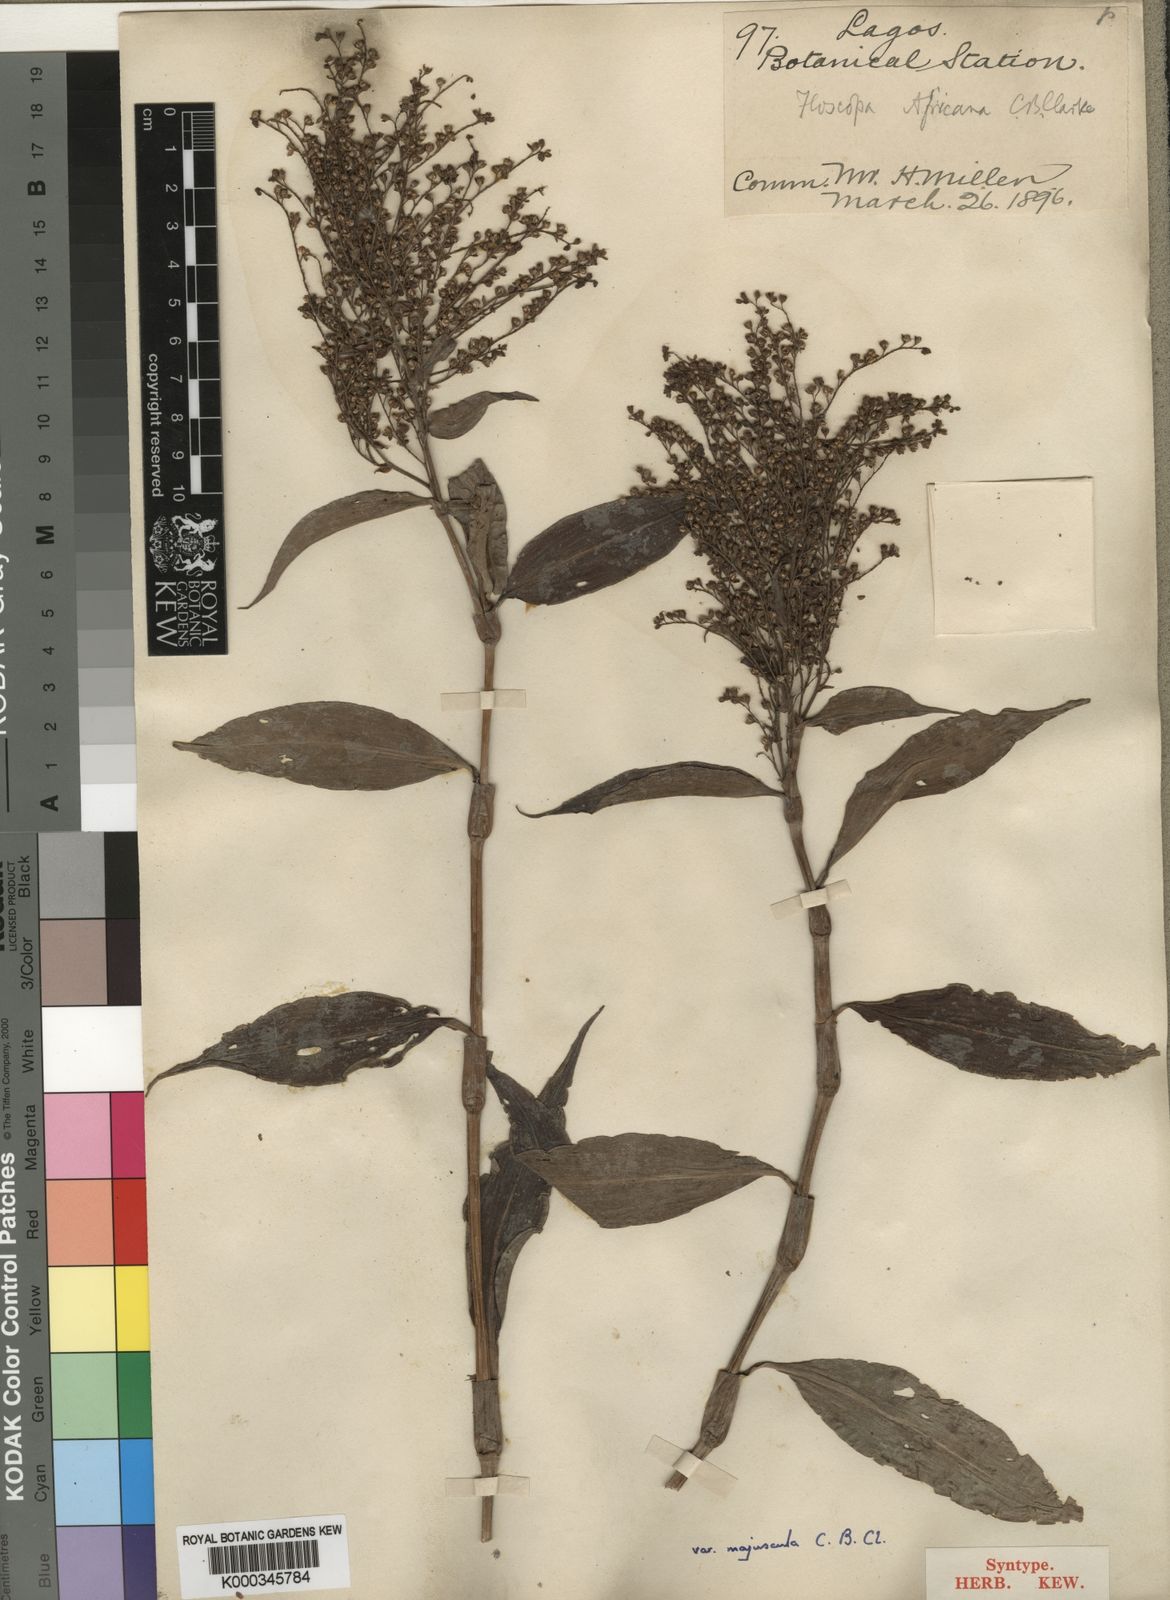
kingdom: Plantae
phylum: Tracheophyta
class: Liliopsida
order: Commelinales
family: Commelinaceae
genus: Floscopa
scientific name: Floscopa africana
